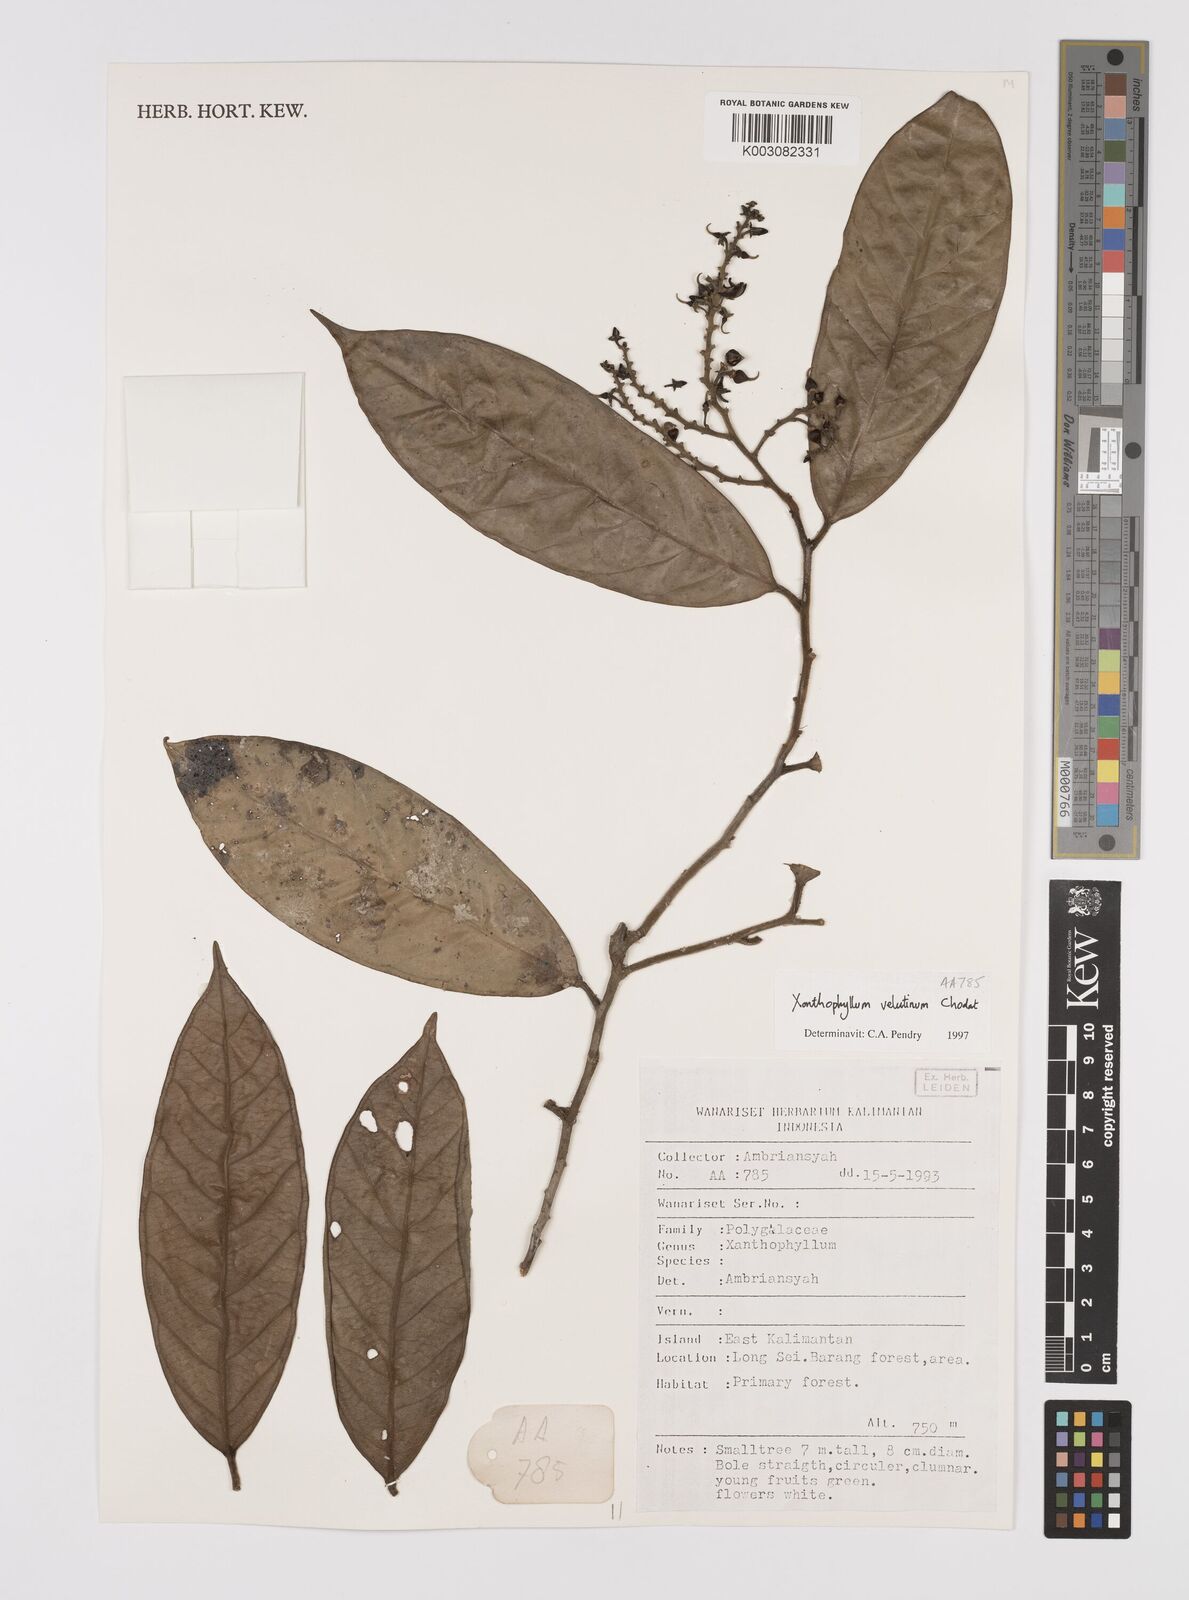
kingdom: Plantae
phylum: Tracheophyta
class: Magnoliopsida
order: Fabales
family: Polygalaceae
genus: Xanthophyllum
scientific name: Xanthophyllum velutinum
